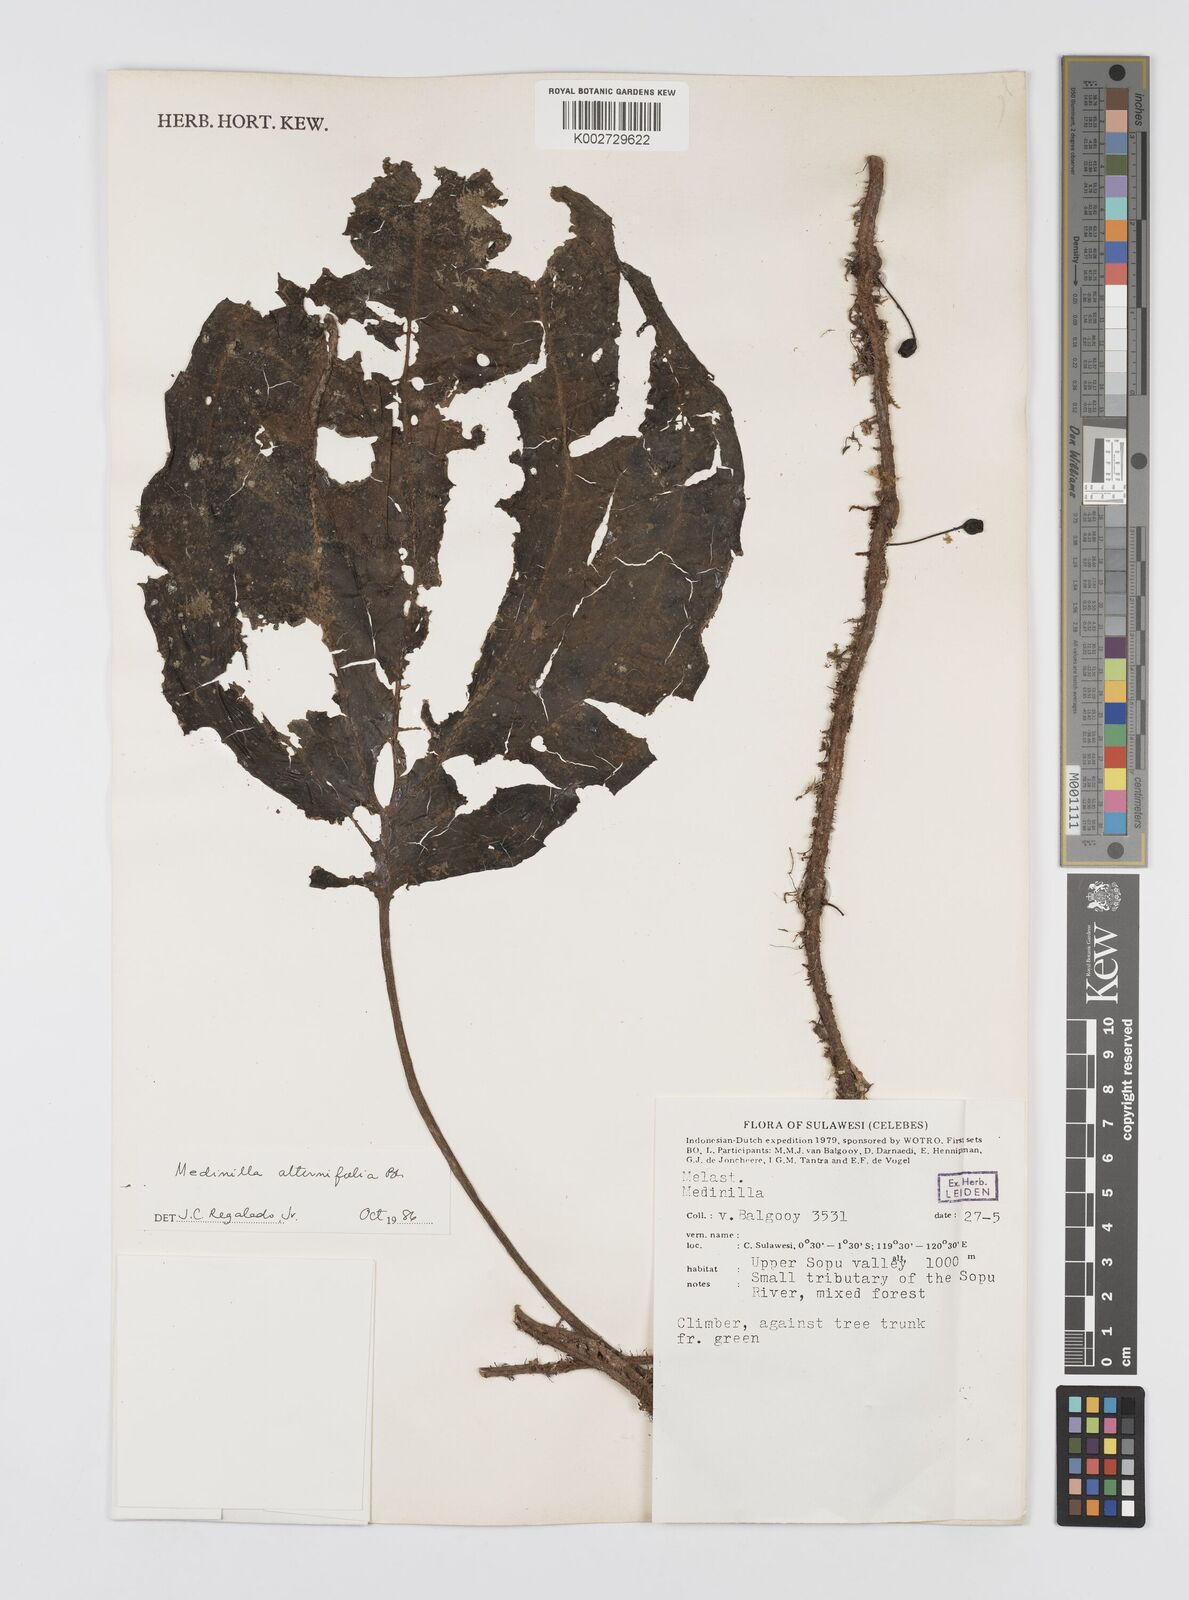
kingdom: Plantae
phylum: Tracheophyta
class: Magnoliopsida
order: Myrtales
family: Melastomataceae
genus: Heteroblemma
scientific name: Heteroblemma alternifolium
